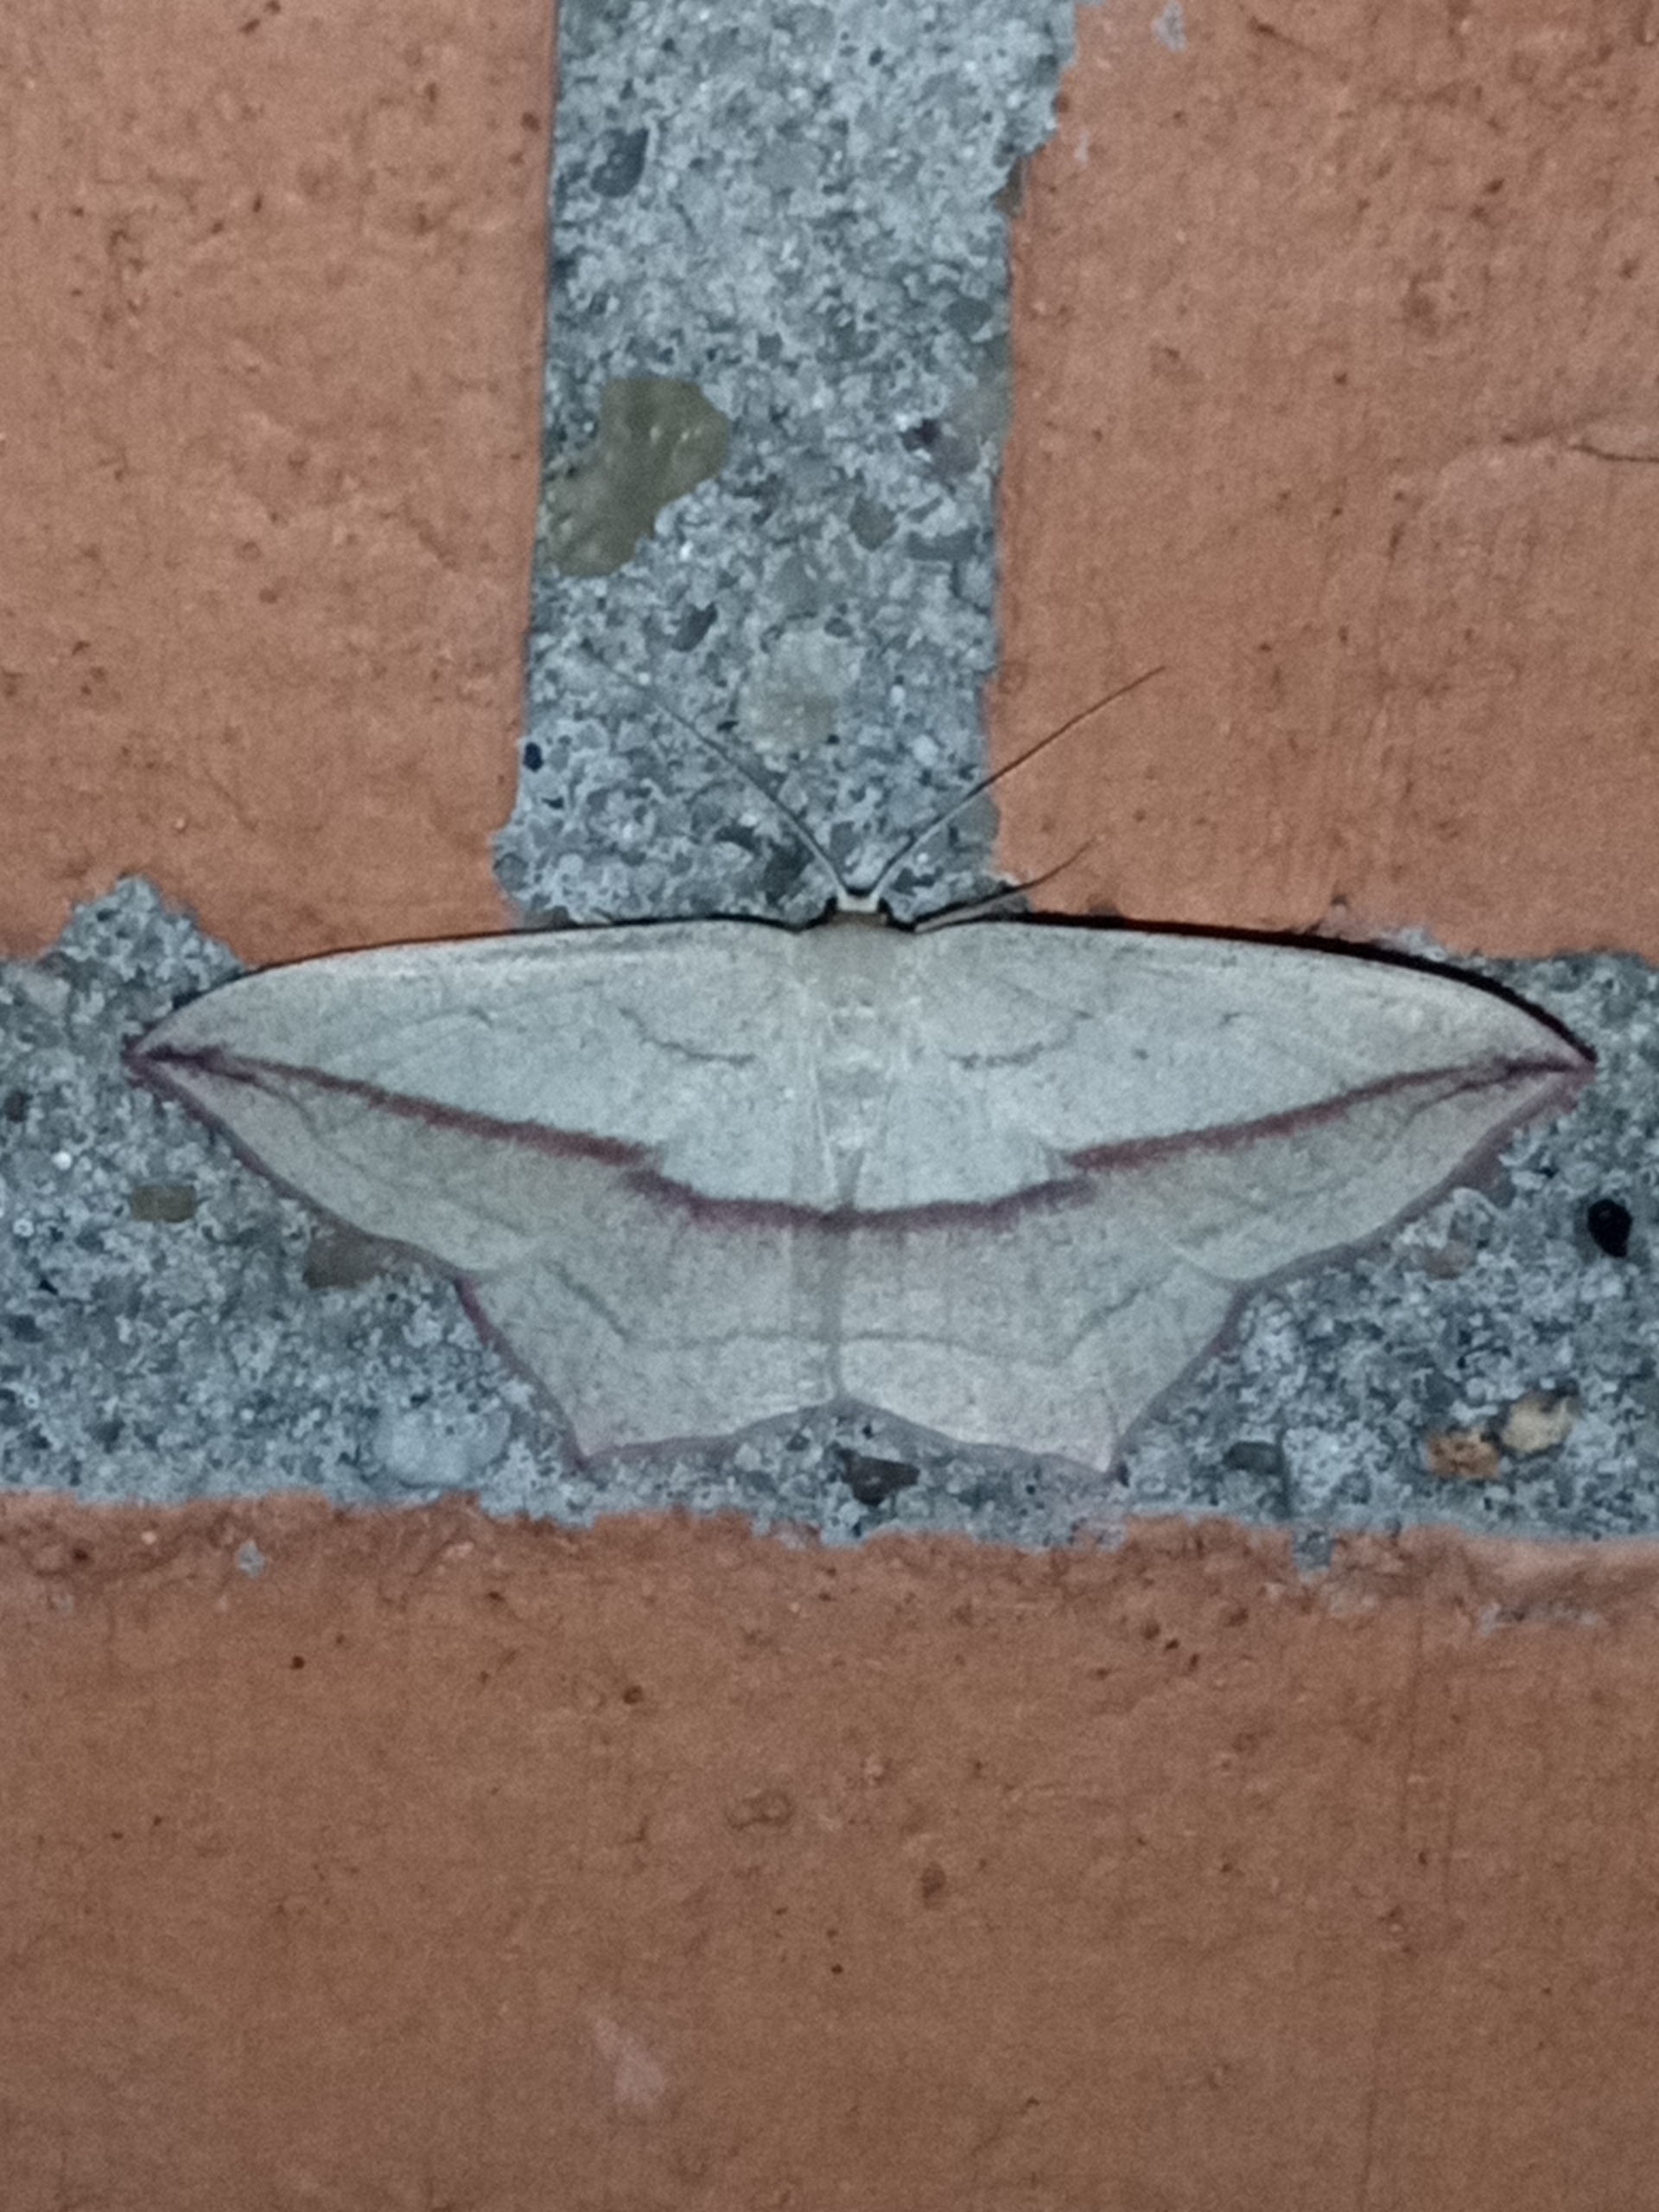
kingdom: Animalia
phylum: Arthropoda
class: Insecta
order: Lepidoptera
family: Geometridae
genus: Timandra
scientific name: Timandra comae
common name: Gul syremåler
